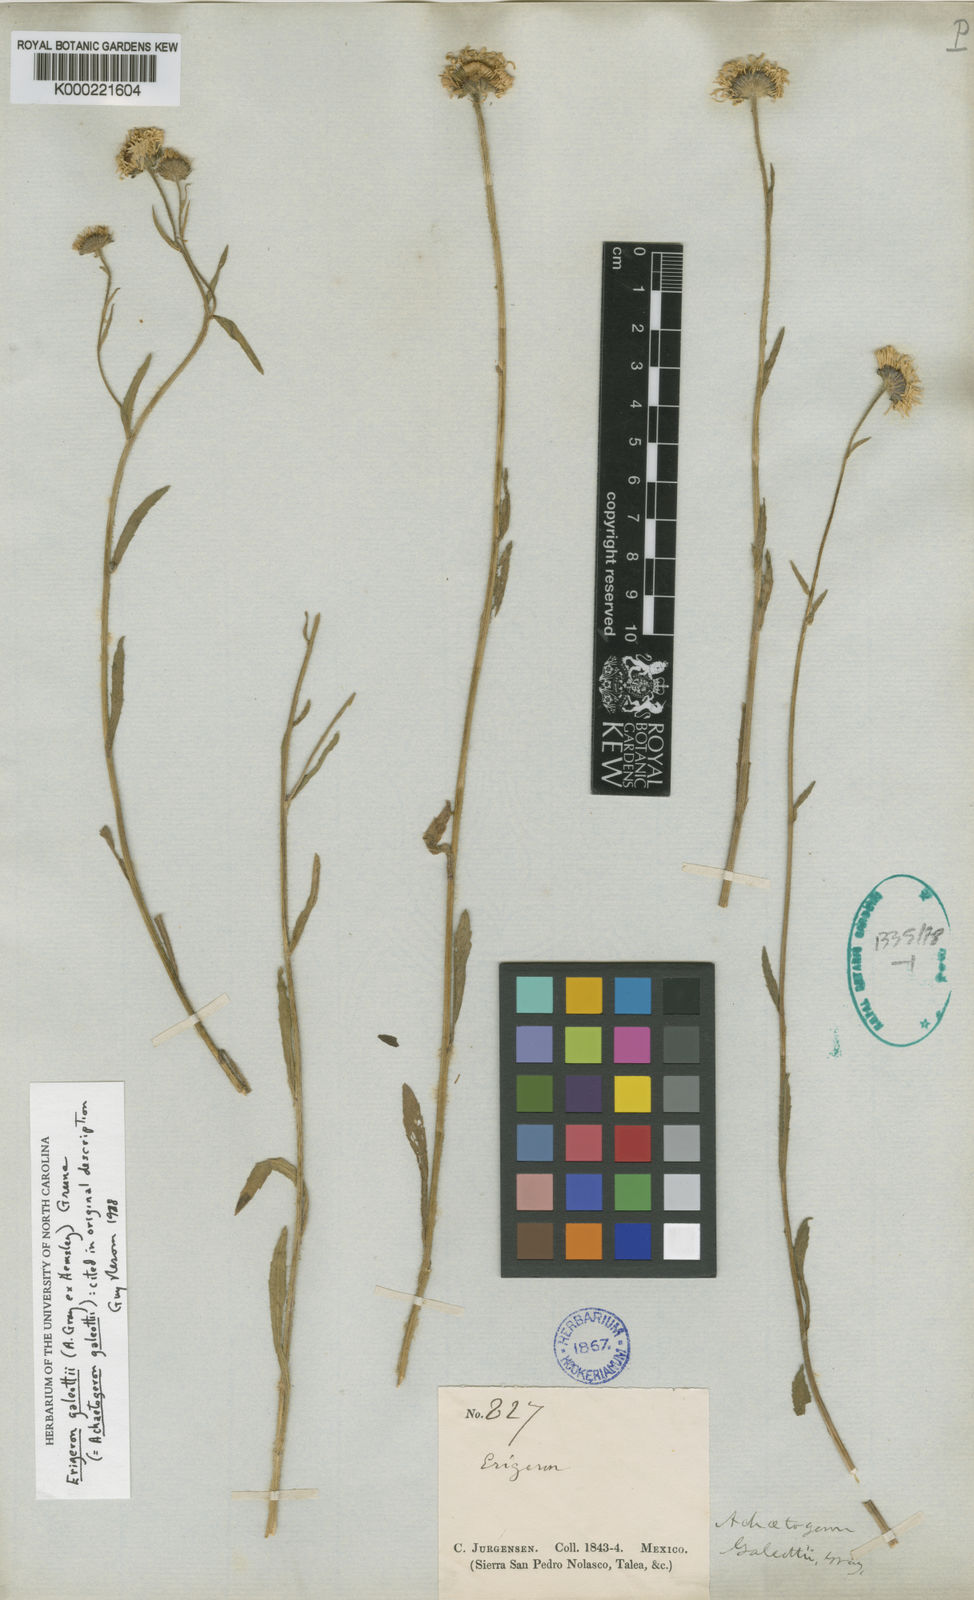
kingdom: Plantae
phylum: Tracheophyta
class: Magnoliopsida
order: Asterales
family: Asteraceae
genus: Erigeron
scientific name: Erigeron
